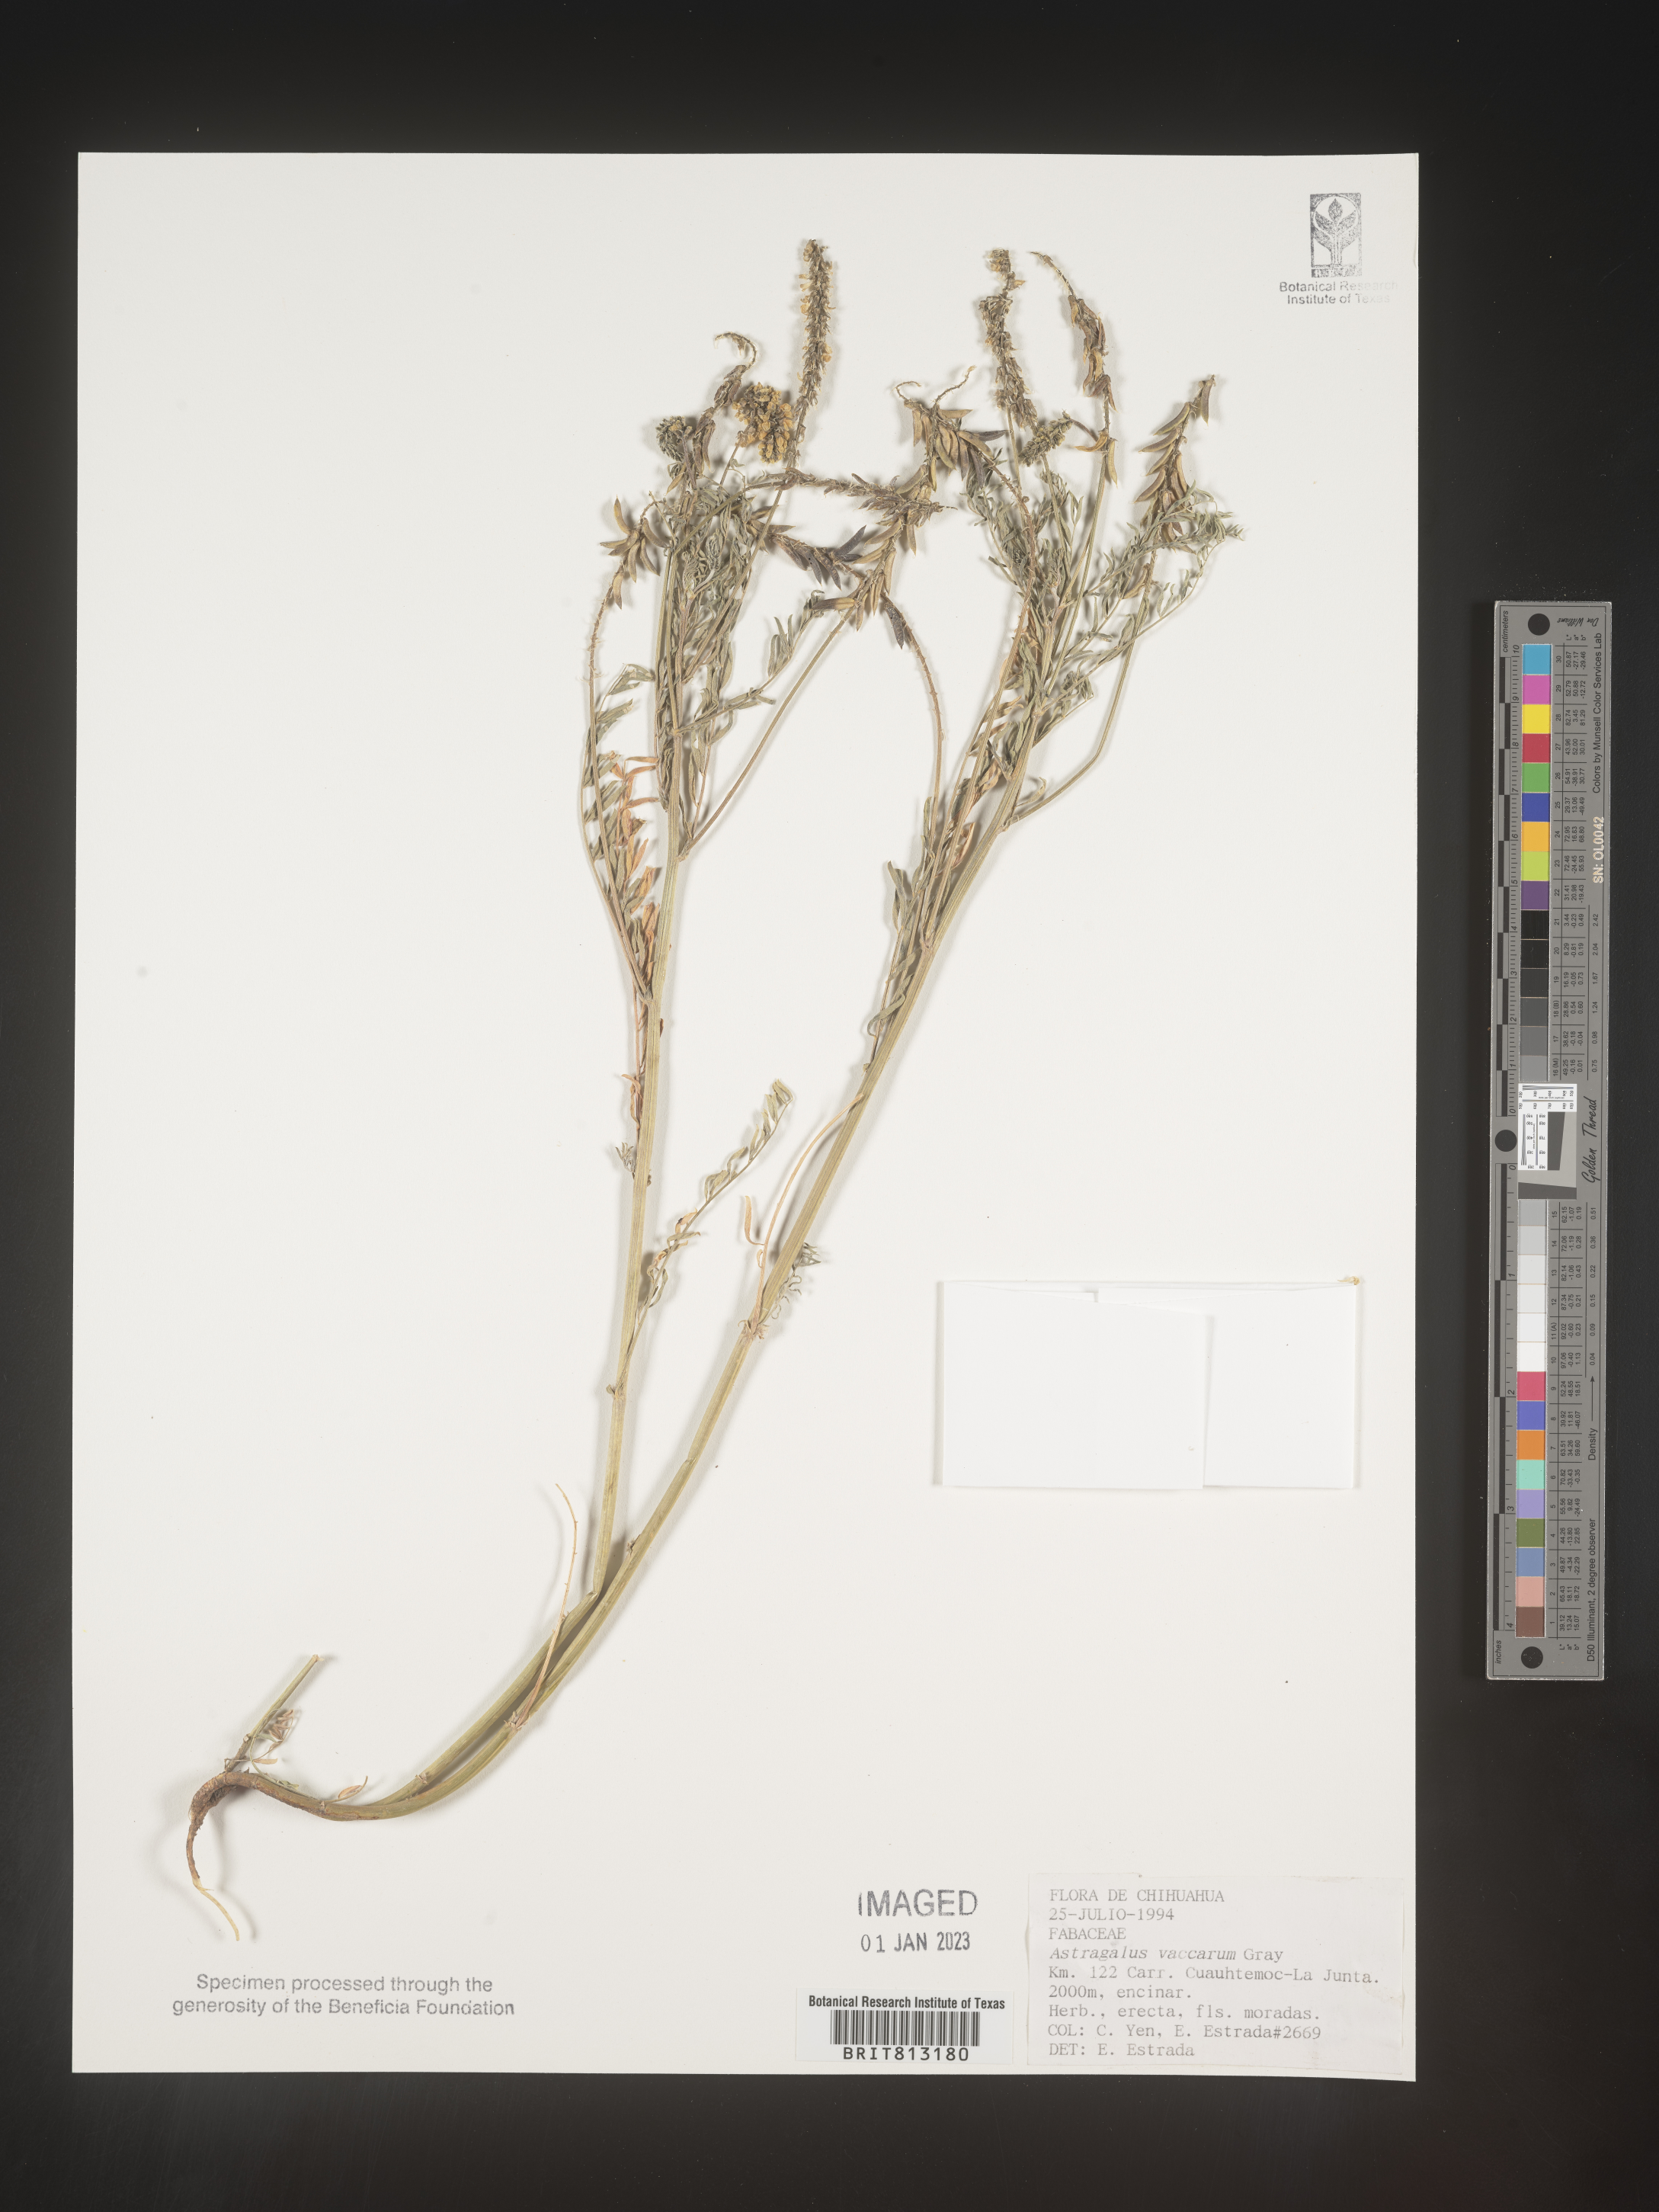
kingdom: Plantae
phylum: Tracheophyta
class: Magnoliopsida
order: Fabales
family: Fabaceae
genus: Astragalus
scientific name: Astragalus
